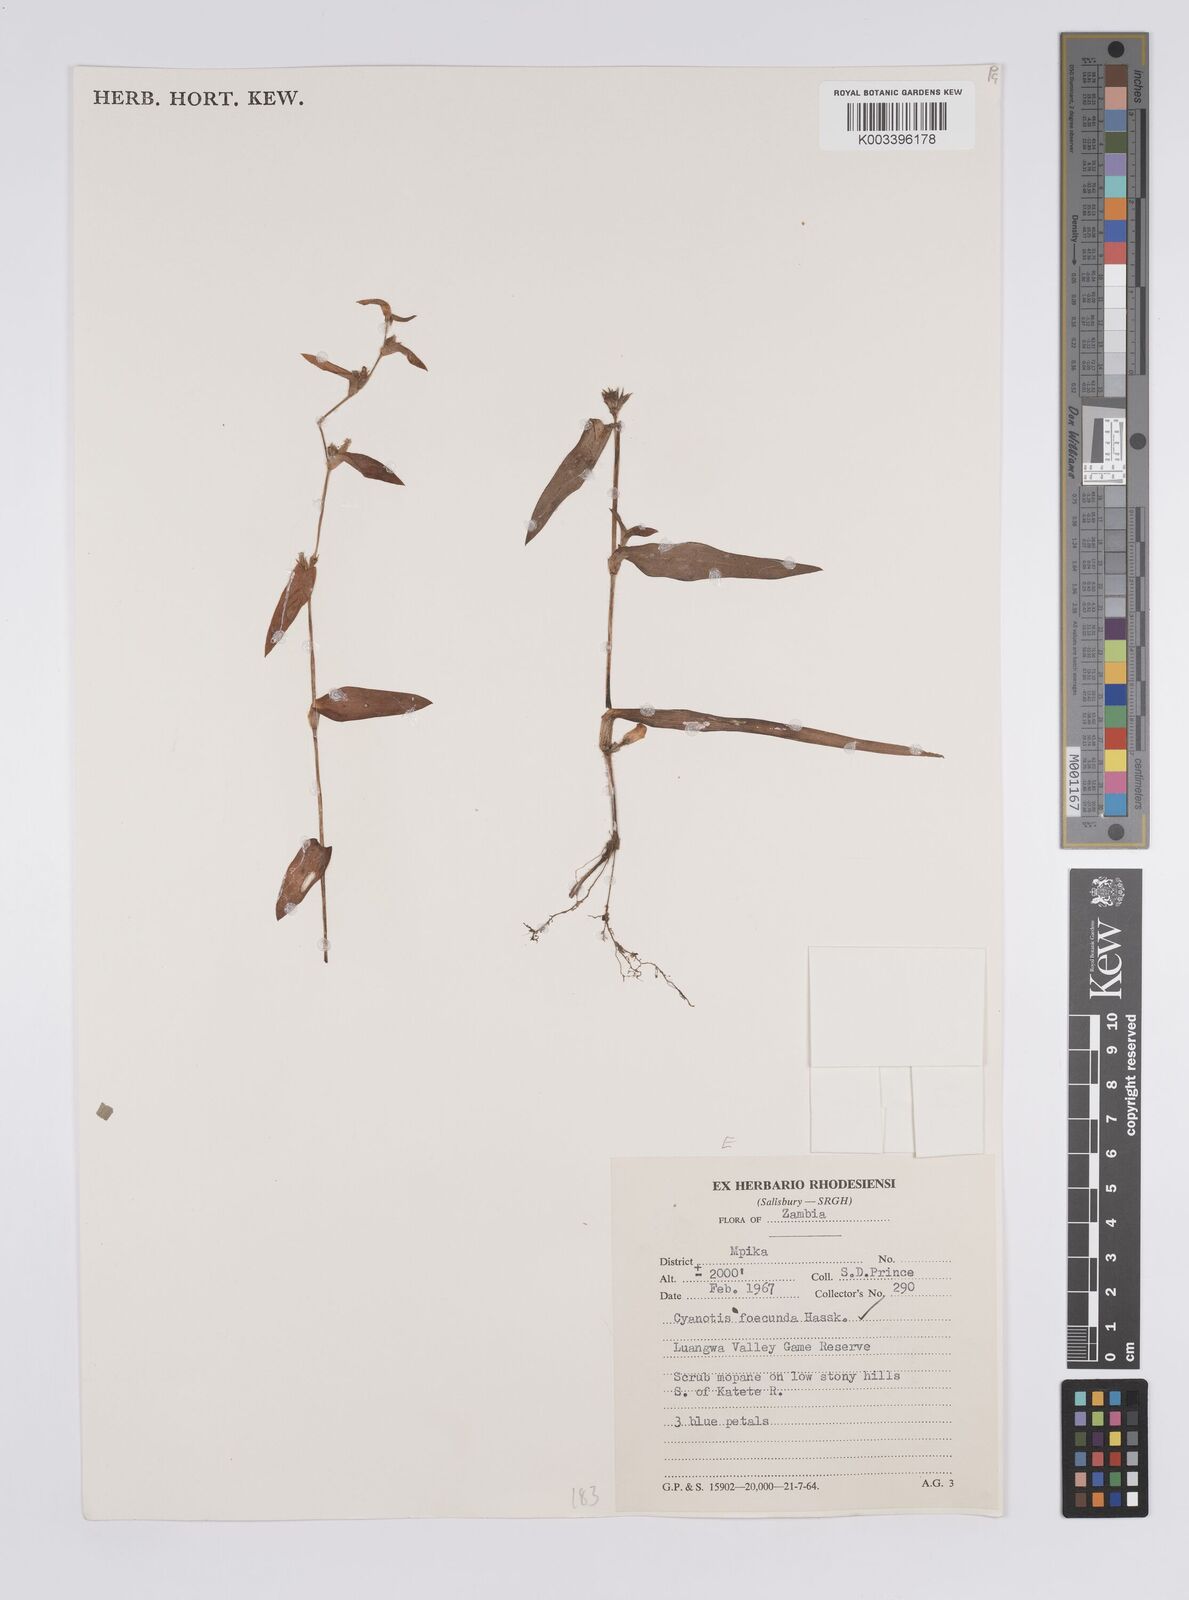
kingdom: Plantae
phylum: Tracheophyta
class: Liliopsida
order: Commelinales
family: Commelinaceae
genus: Cyanotis
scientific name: Cyanotis foecunda
